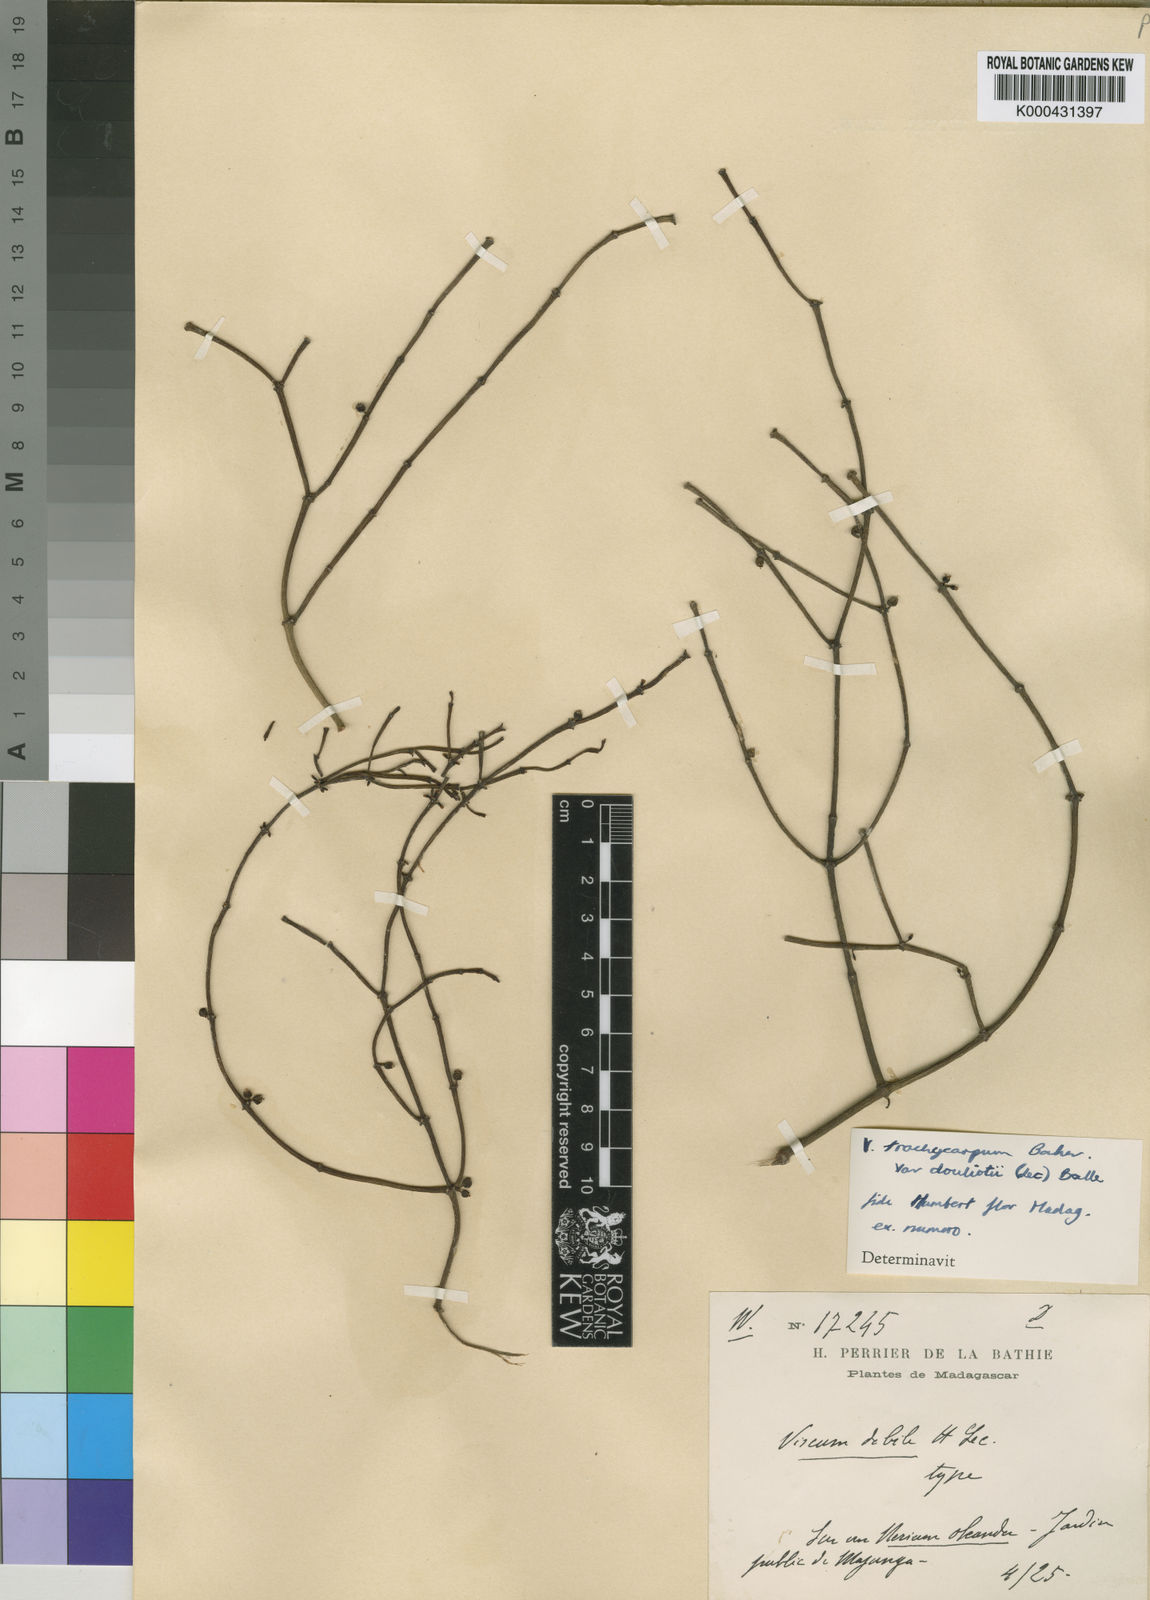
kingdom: Plantae
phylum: Tracheophyta
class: Magnoliopsida
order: Santalales
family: Viscaceae
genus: Viscum
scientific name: Viscum trachycarpum
